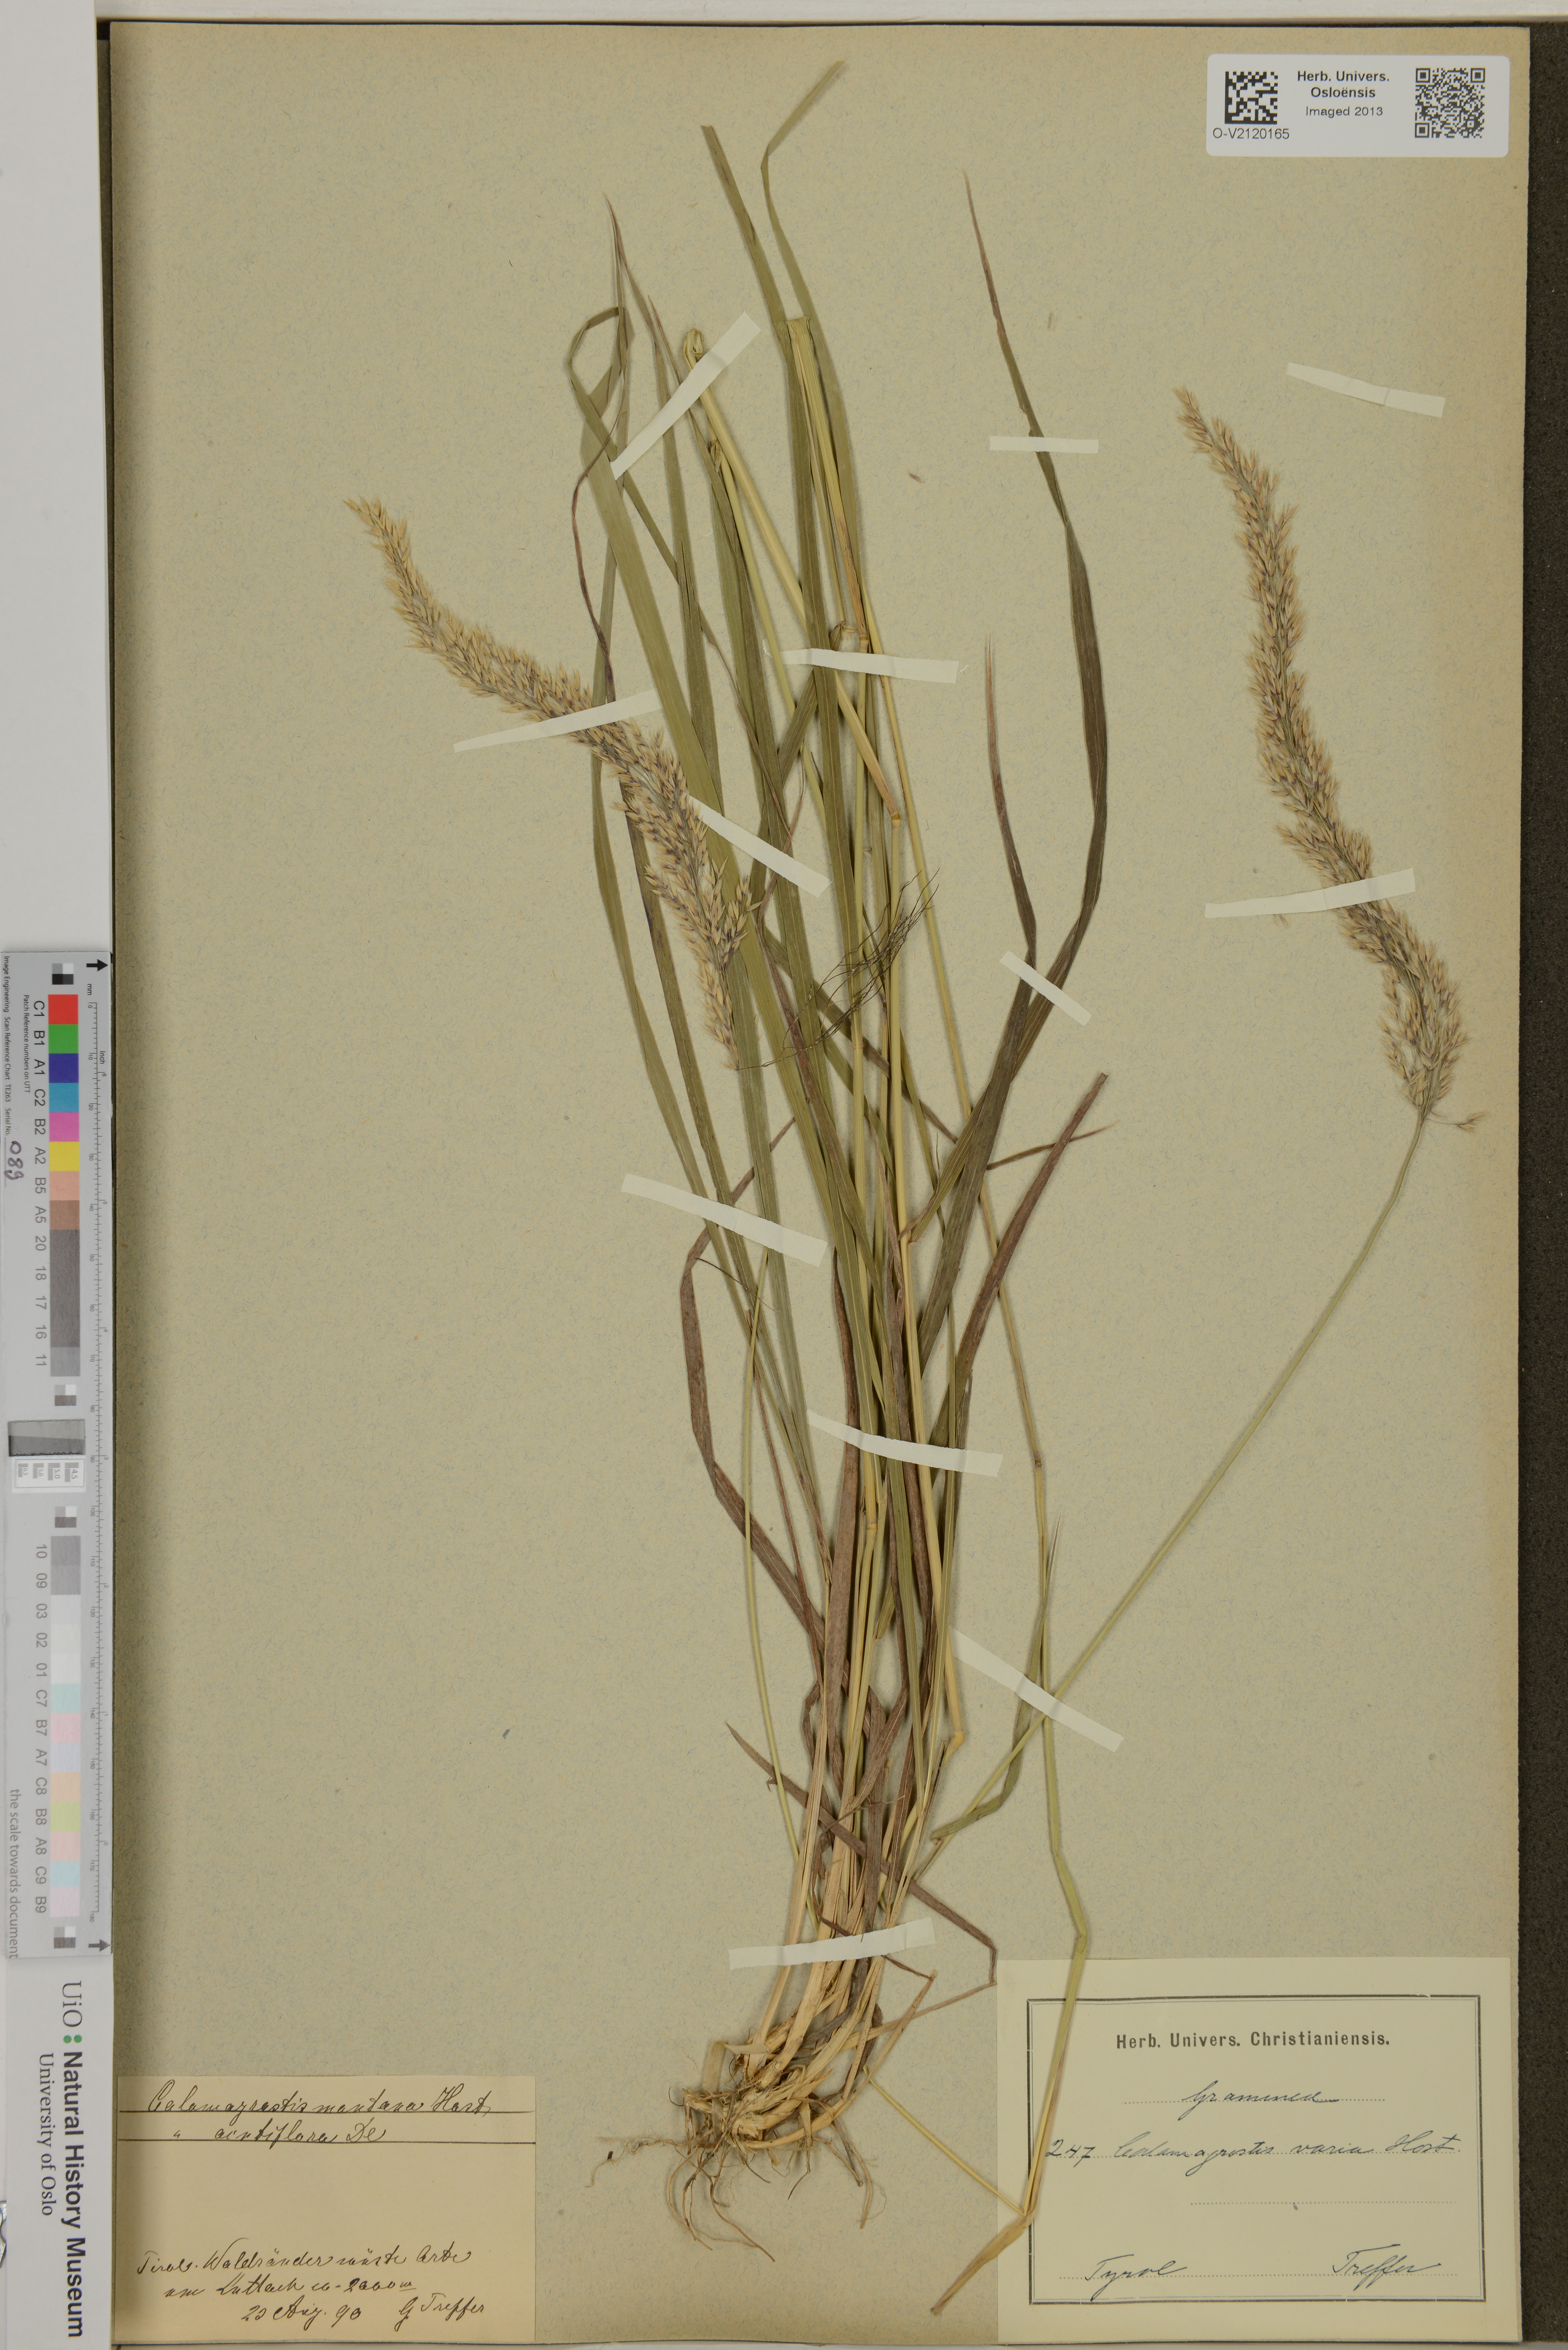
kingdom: Plantae
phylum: Tracheophyta
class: Liliopsida
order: Poales
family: Poaceae
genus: Calamagrostis
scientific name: Calamagrostis varia
